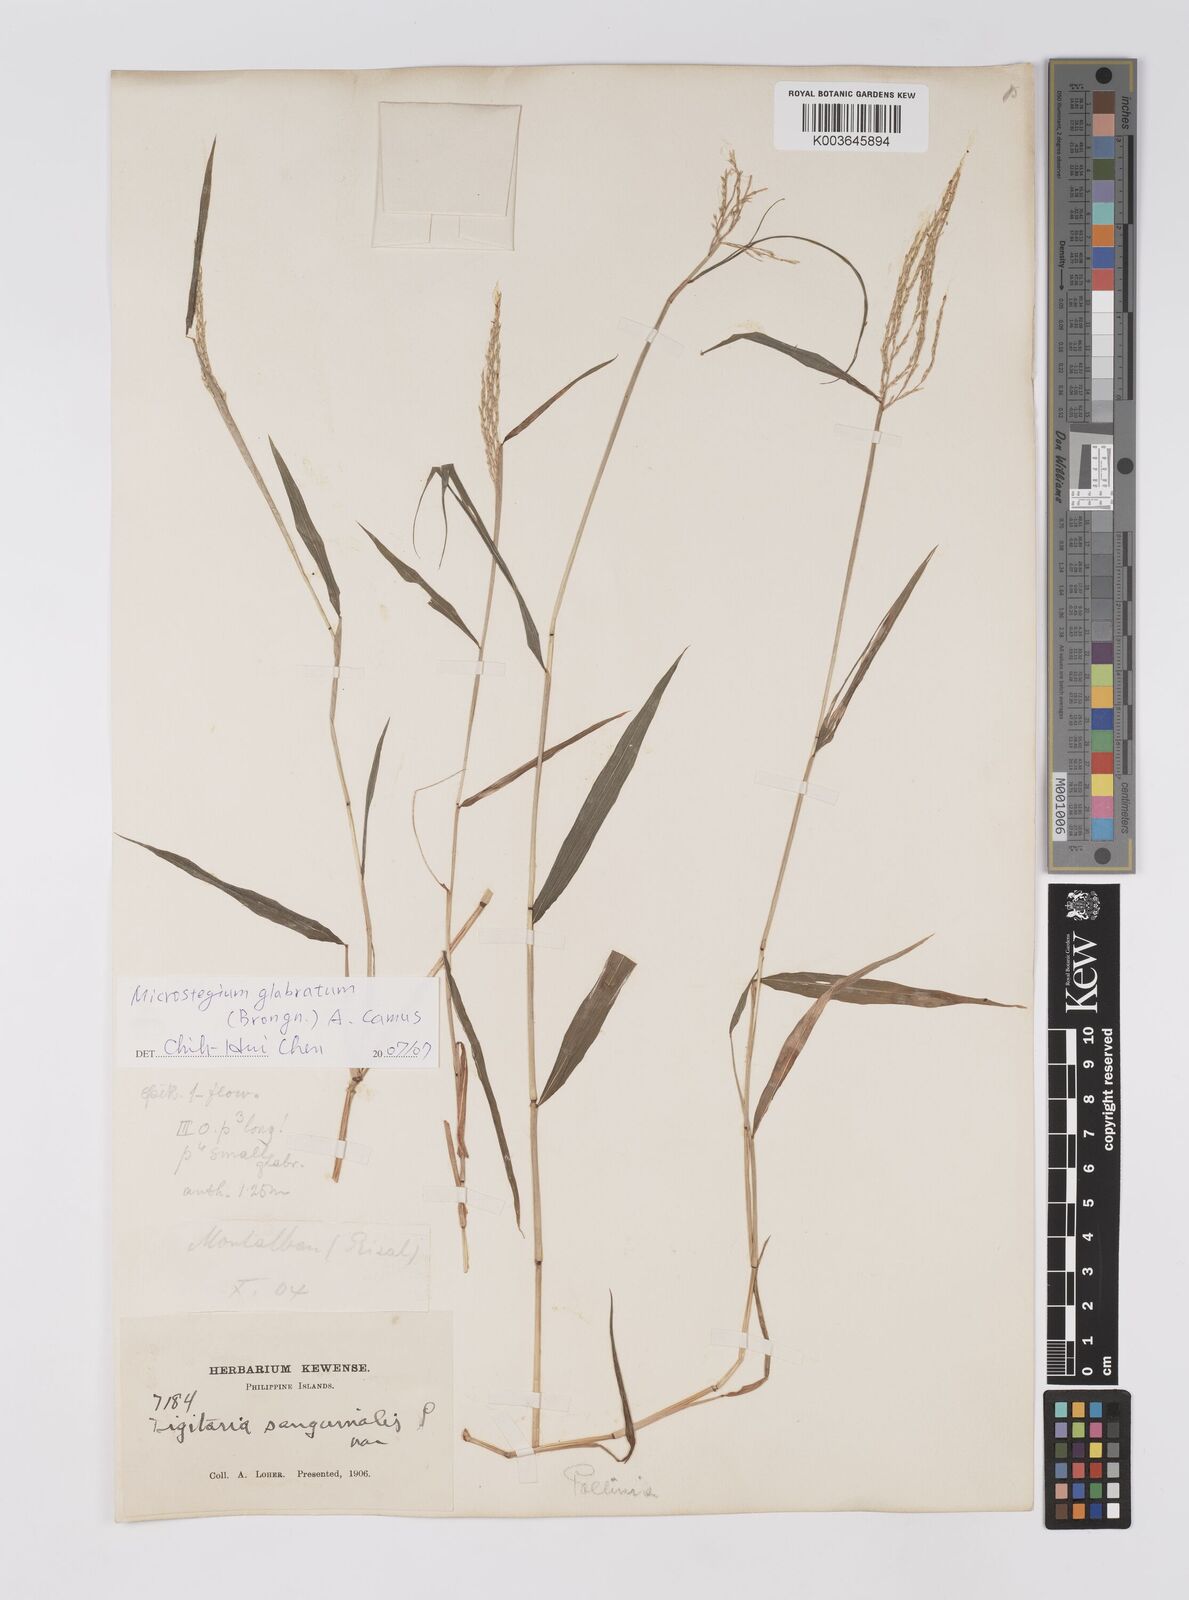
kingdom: Plantae
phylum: Tracheophyta
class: Liliopsida
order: Poales
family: Poaceae
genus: Microstegium
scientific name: Microstegium glabratum
